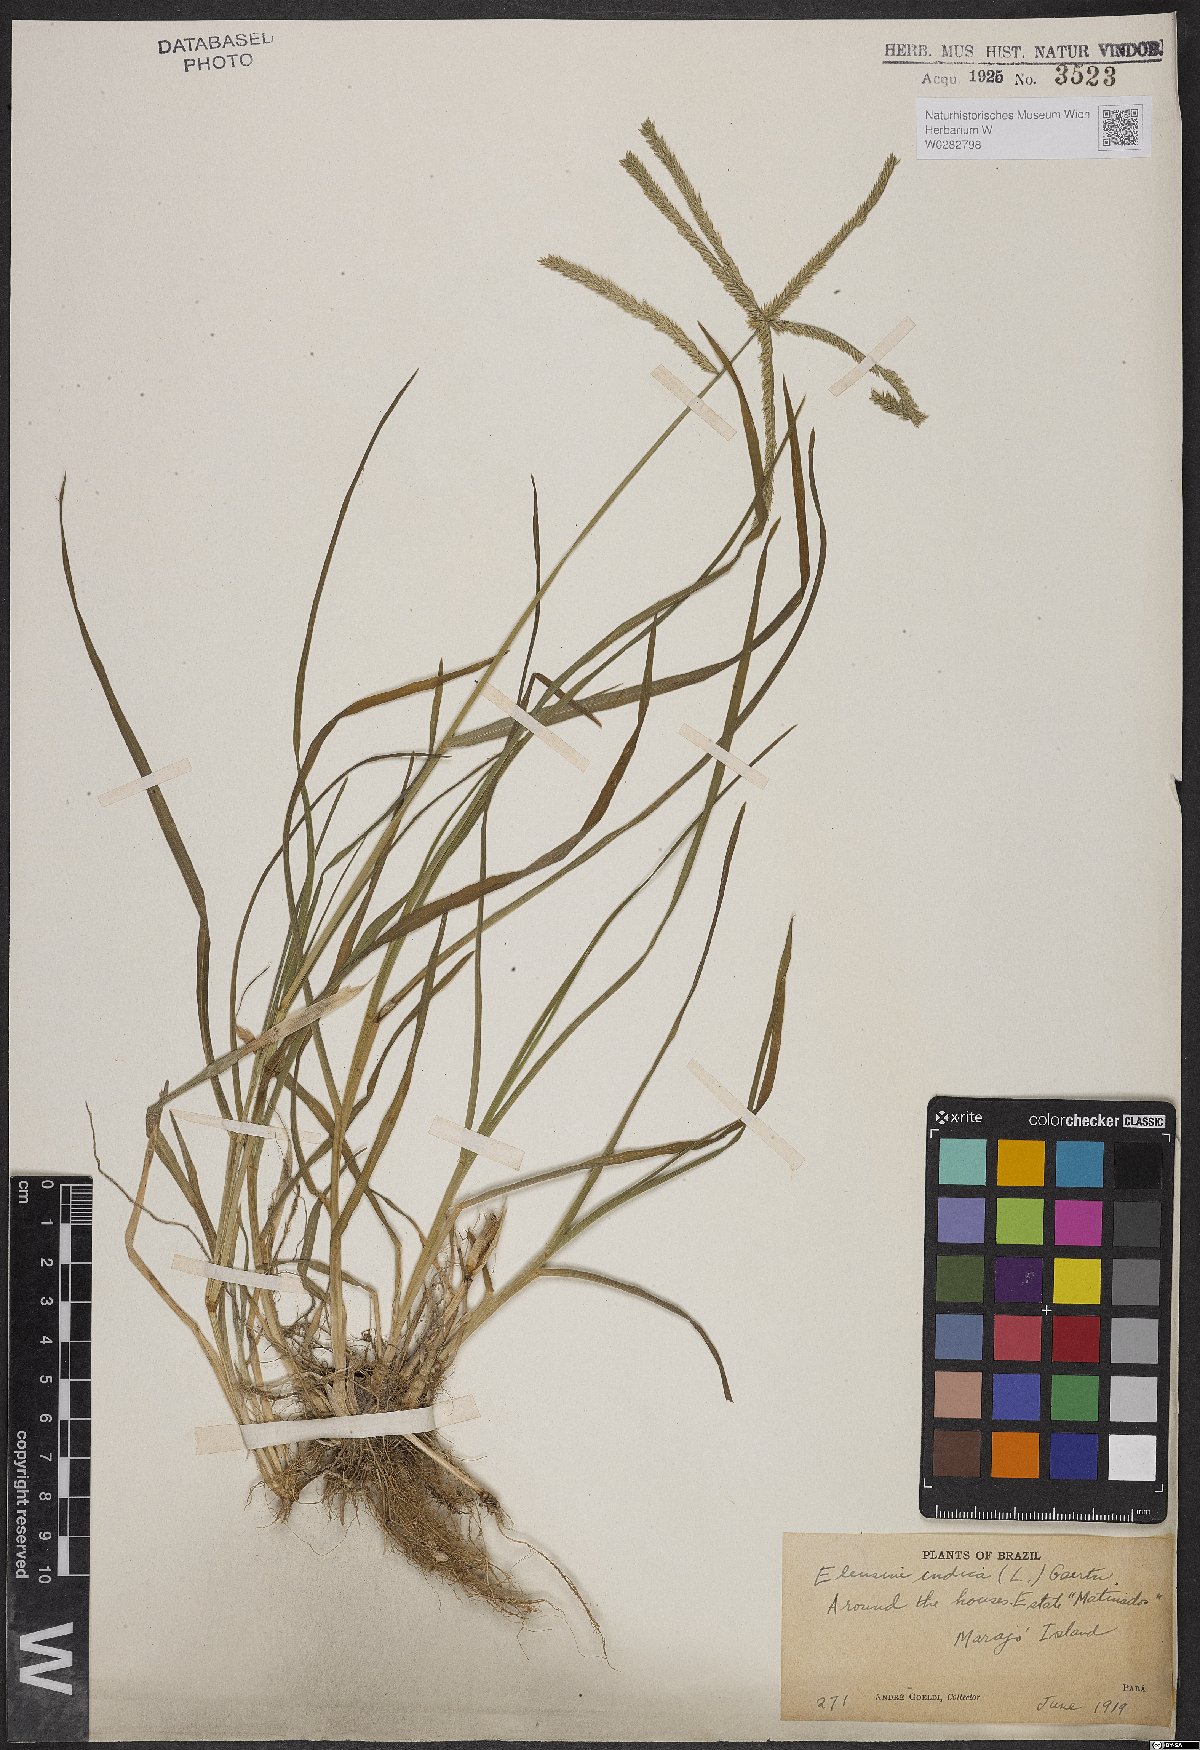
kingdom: Plantae
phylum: Tracheophyta
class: Liliopsida
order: Poales
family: Poaceae
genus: Eleusine
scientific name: Eleusine indica
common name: Yard-grass
